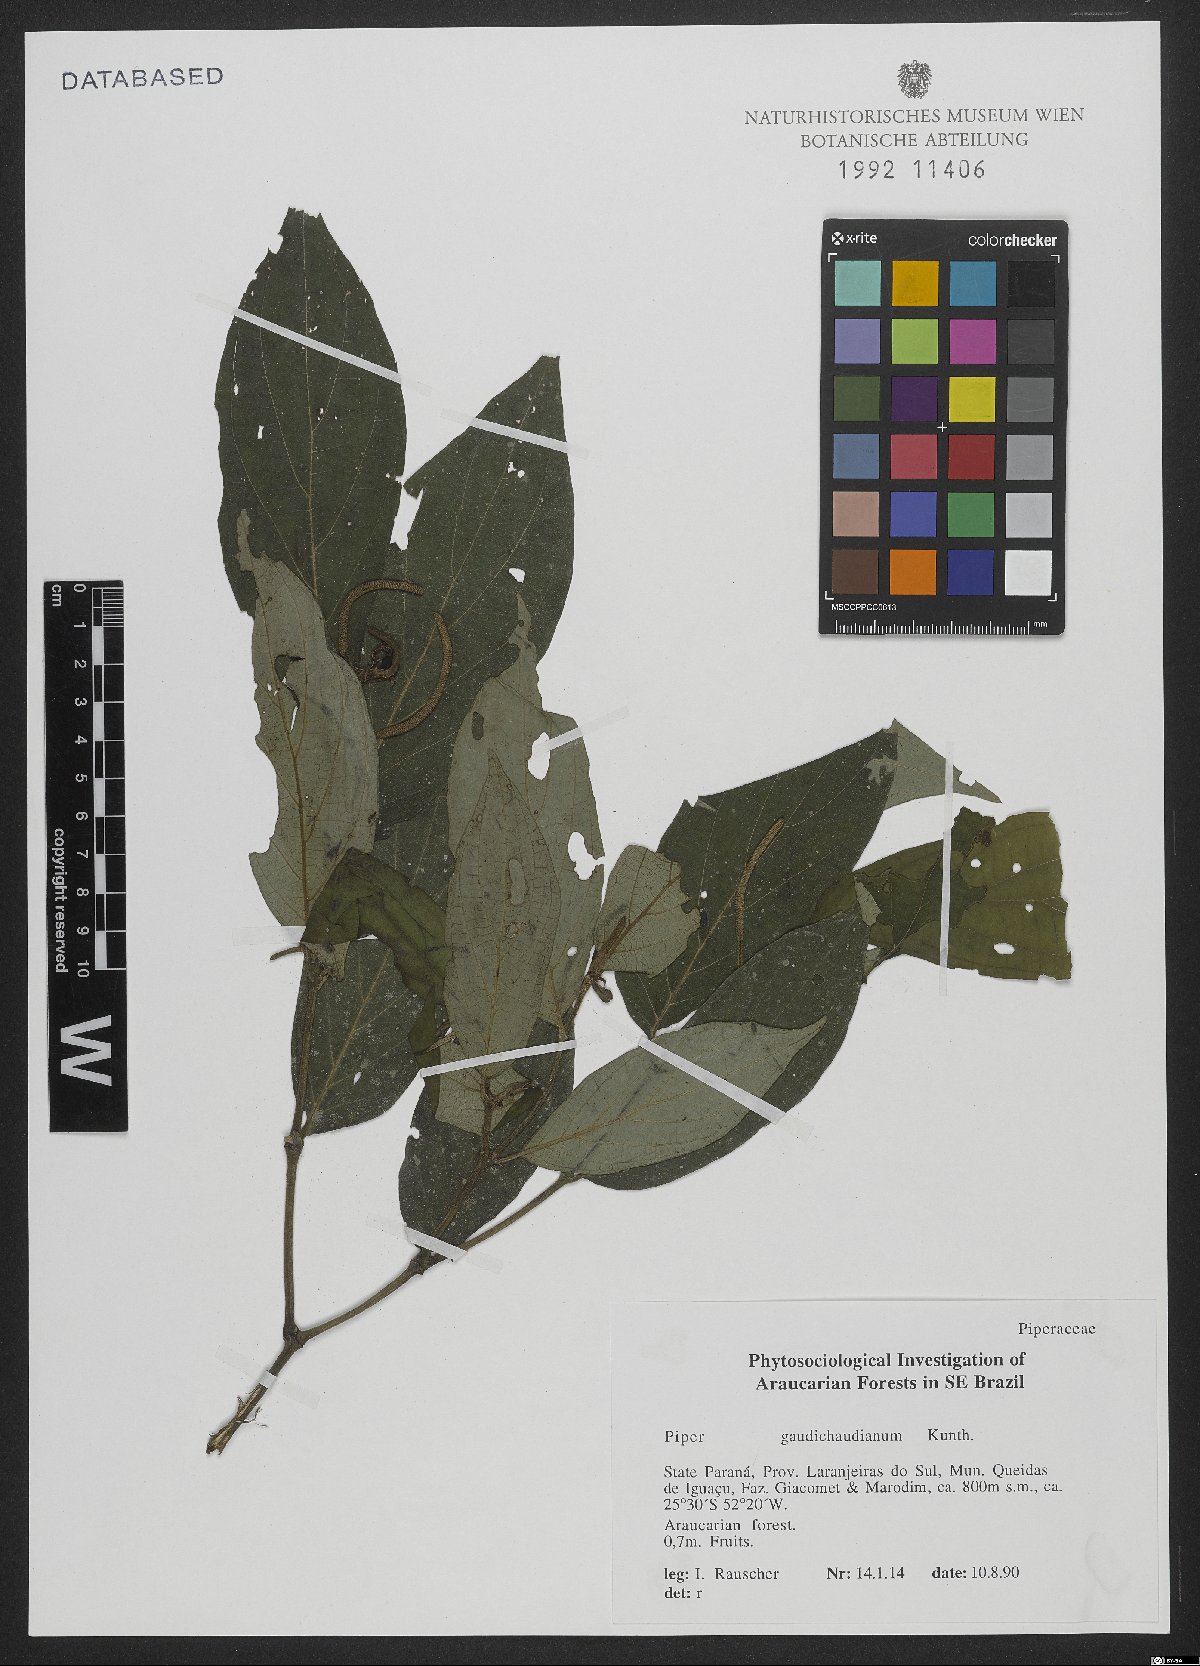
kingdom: Plantae
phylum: Tracheophyta
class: Magnoliopsida
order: Piperales
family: Piperaceae
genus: Piper
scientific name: Piper gaudichaudianum
